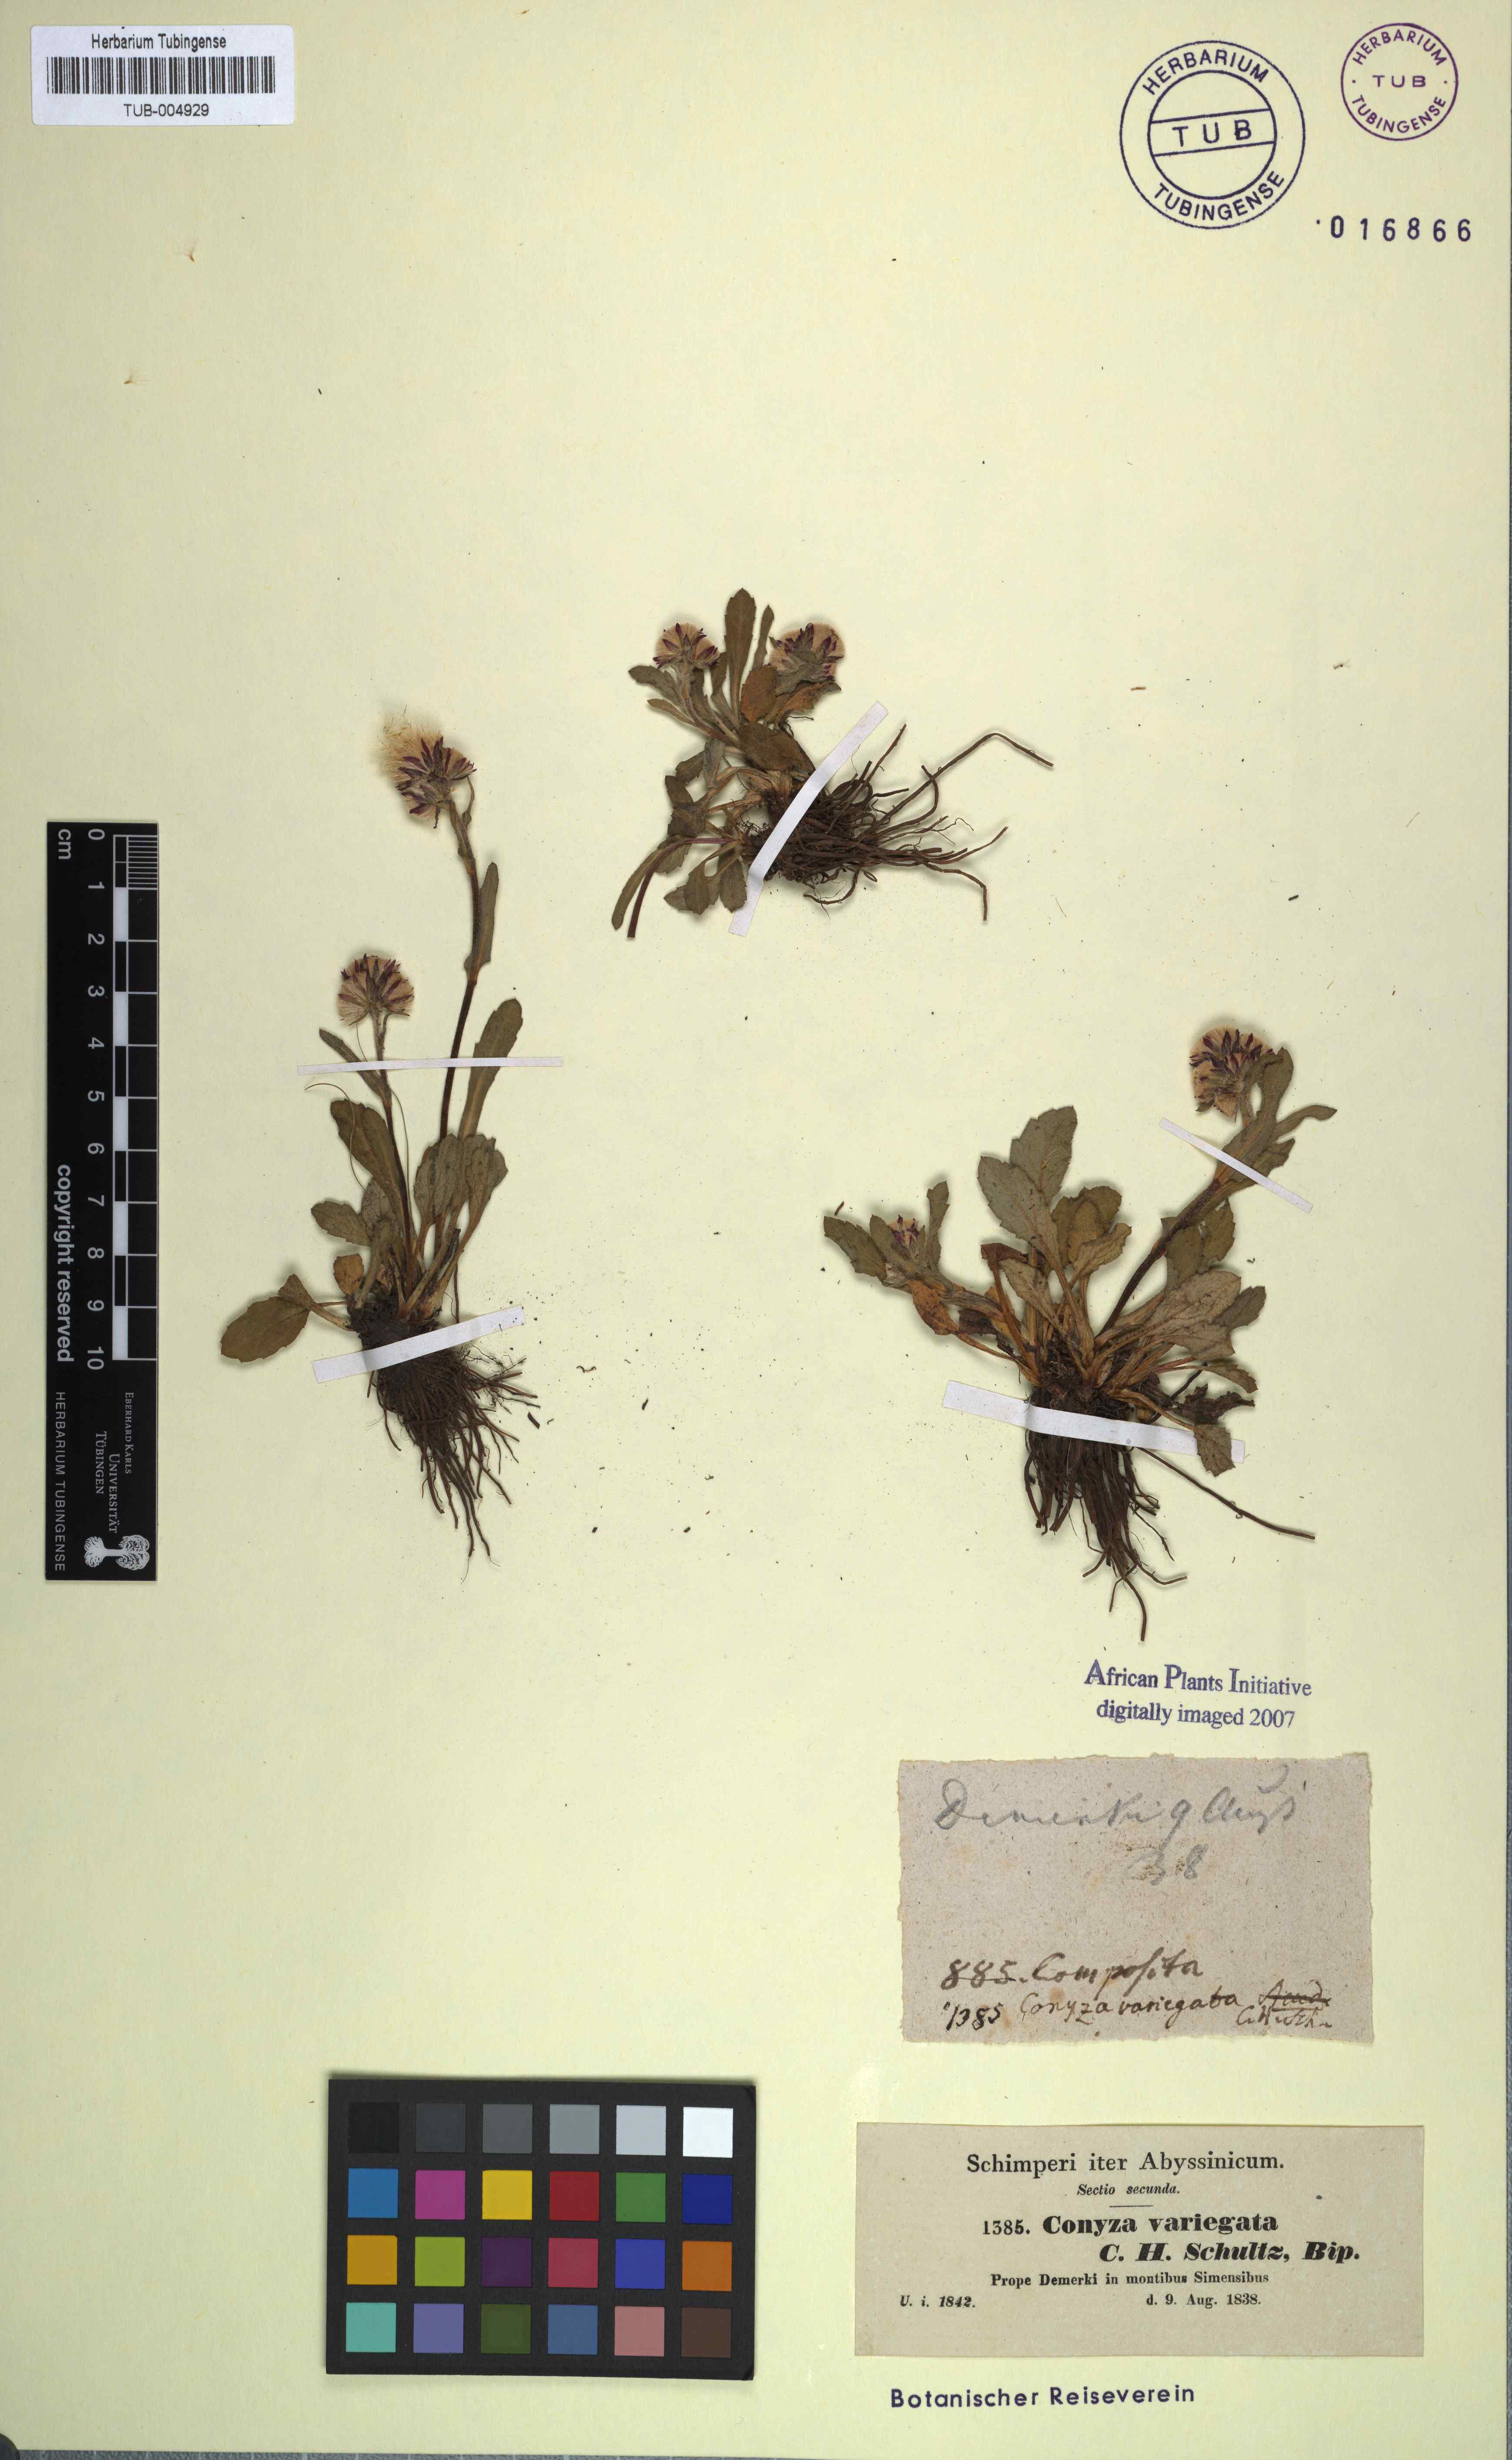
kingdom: Plantae
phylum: Tracheophyta
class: Magnoliopsida
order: Asterales
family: Asteraceae
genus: Conyza
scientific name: Conyza variegata
